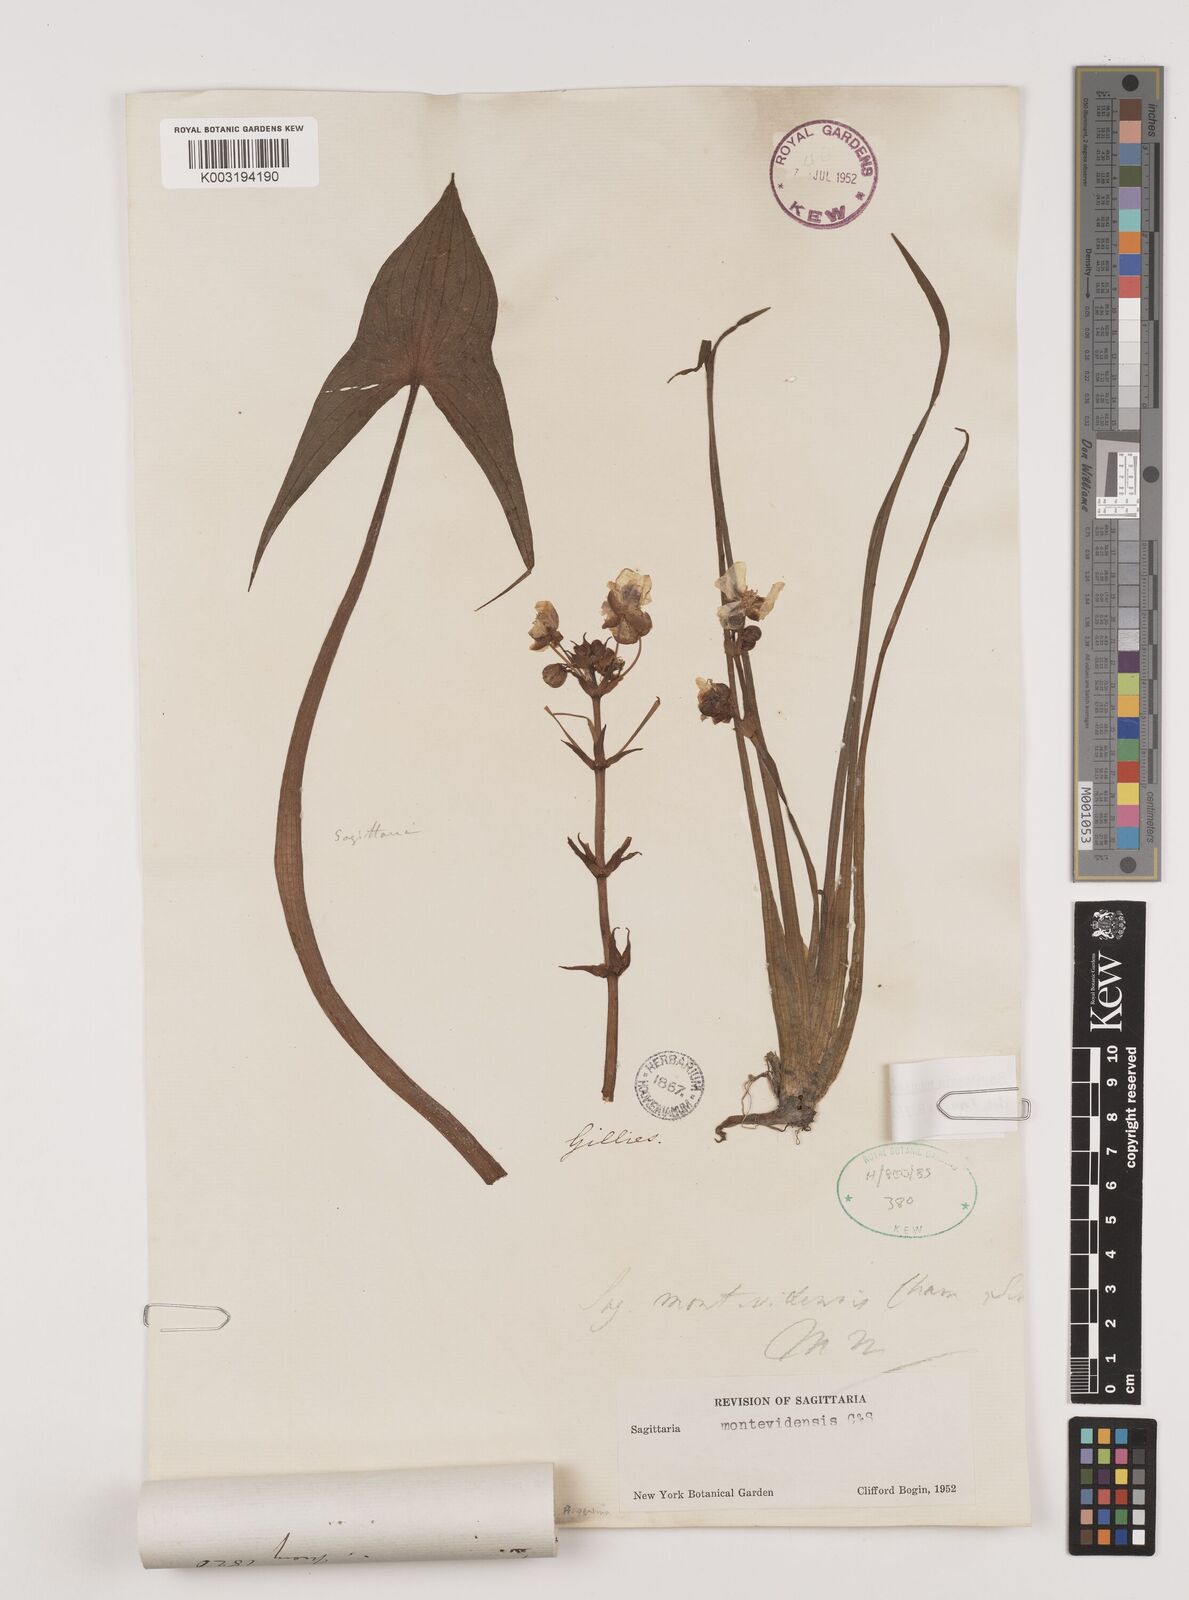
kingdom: Plantae
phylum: Tracheophyta
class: Liliopsida
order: Alismatales
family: Alismataceae
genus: Sagittaria
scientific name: Sagittaria montevidensis
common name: Giant arrowhead
